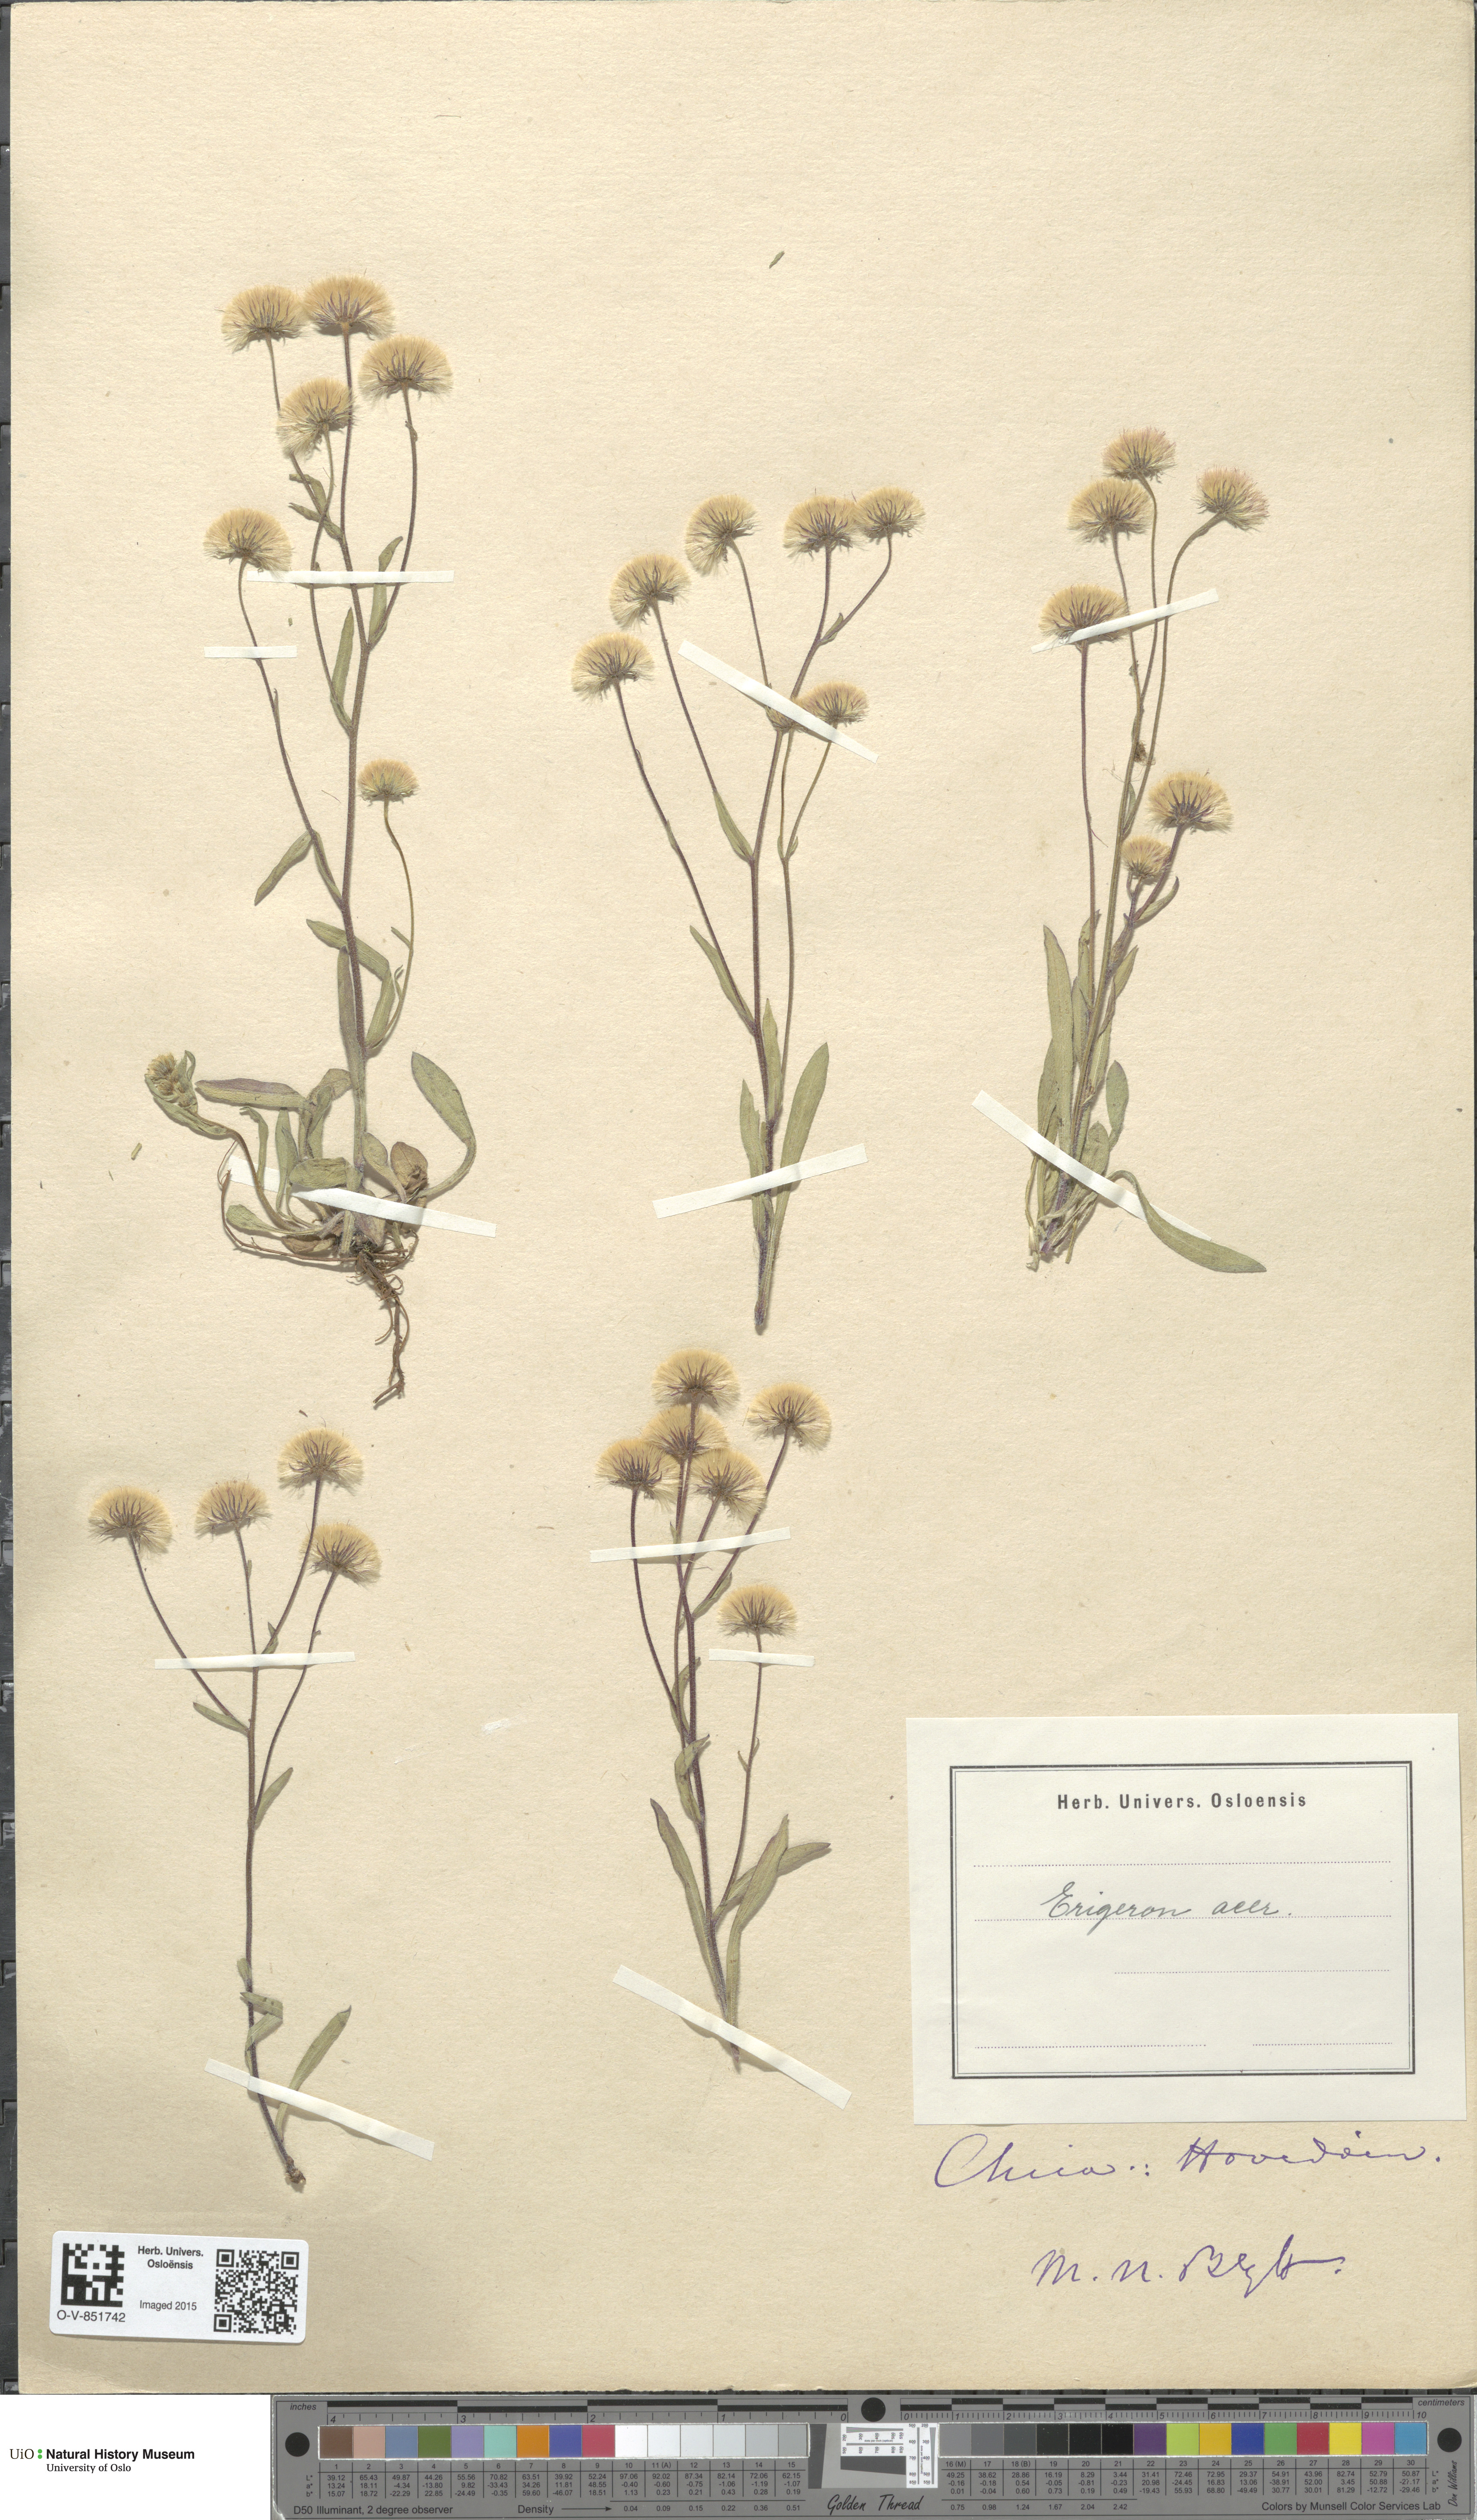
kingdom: Plantae
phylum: Tracheophyta
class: Magnoliopsida
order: Asterales
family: Asteraceae
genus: Erigeron
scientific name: Erigeron acris
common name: Blue fleabane
